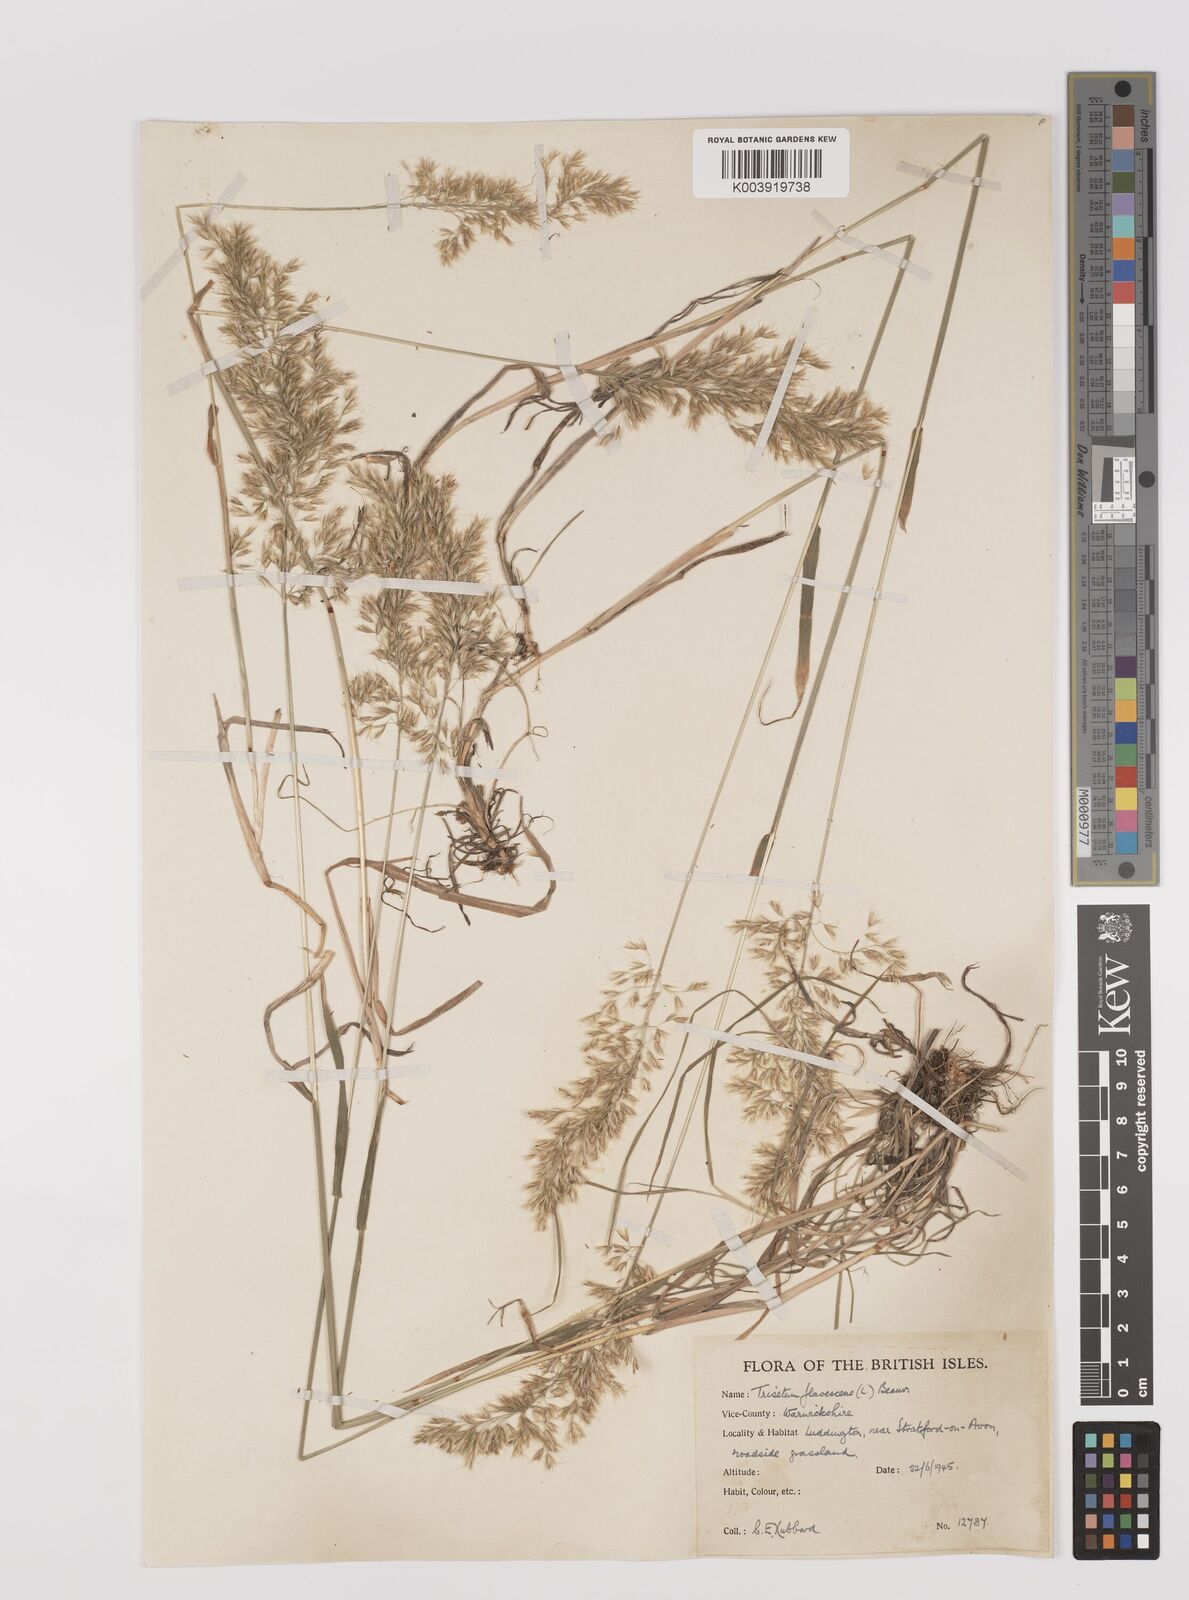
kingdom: Plantae
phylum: Tracheophyta
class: Liliopsida
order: Poales
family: Poaceae
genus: Trisetum
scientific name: Trisetum flavescens
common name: Yellow oat-grass
